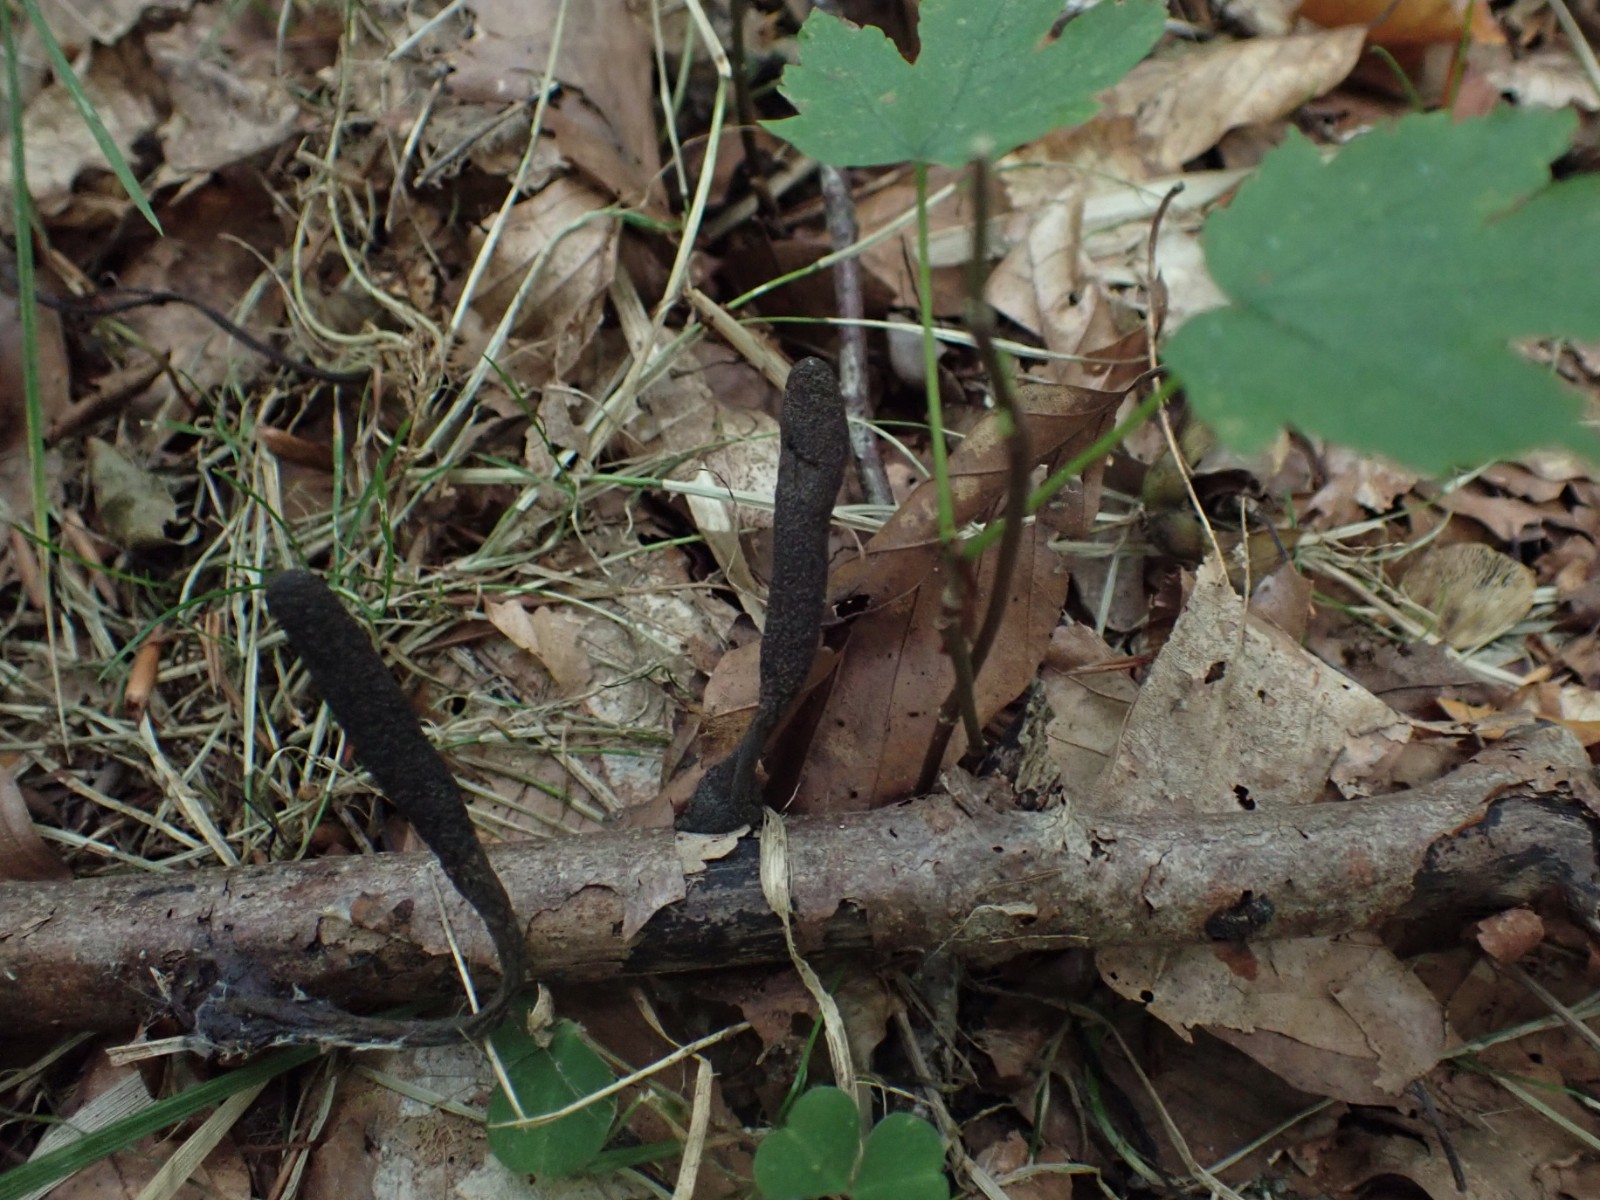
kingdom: Fungi
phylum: Ascomycota
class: Sordariomycetes
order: Xylariales
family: Xylariaceae
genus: Xylaria
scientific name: Xylaria longipes
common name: slank stødsvamp
